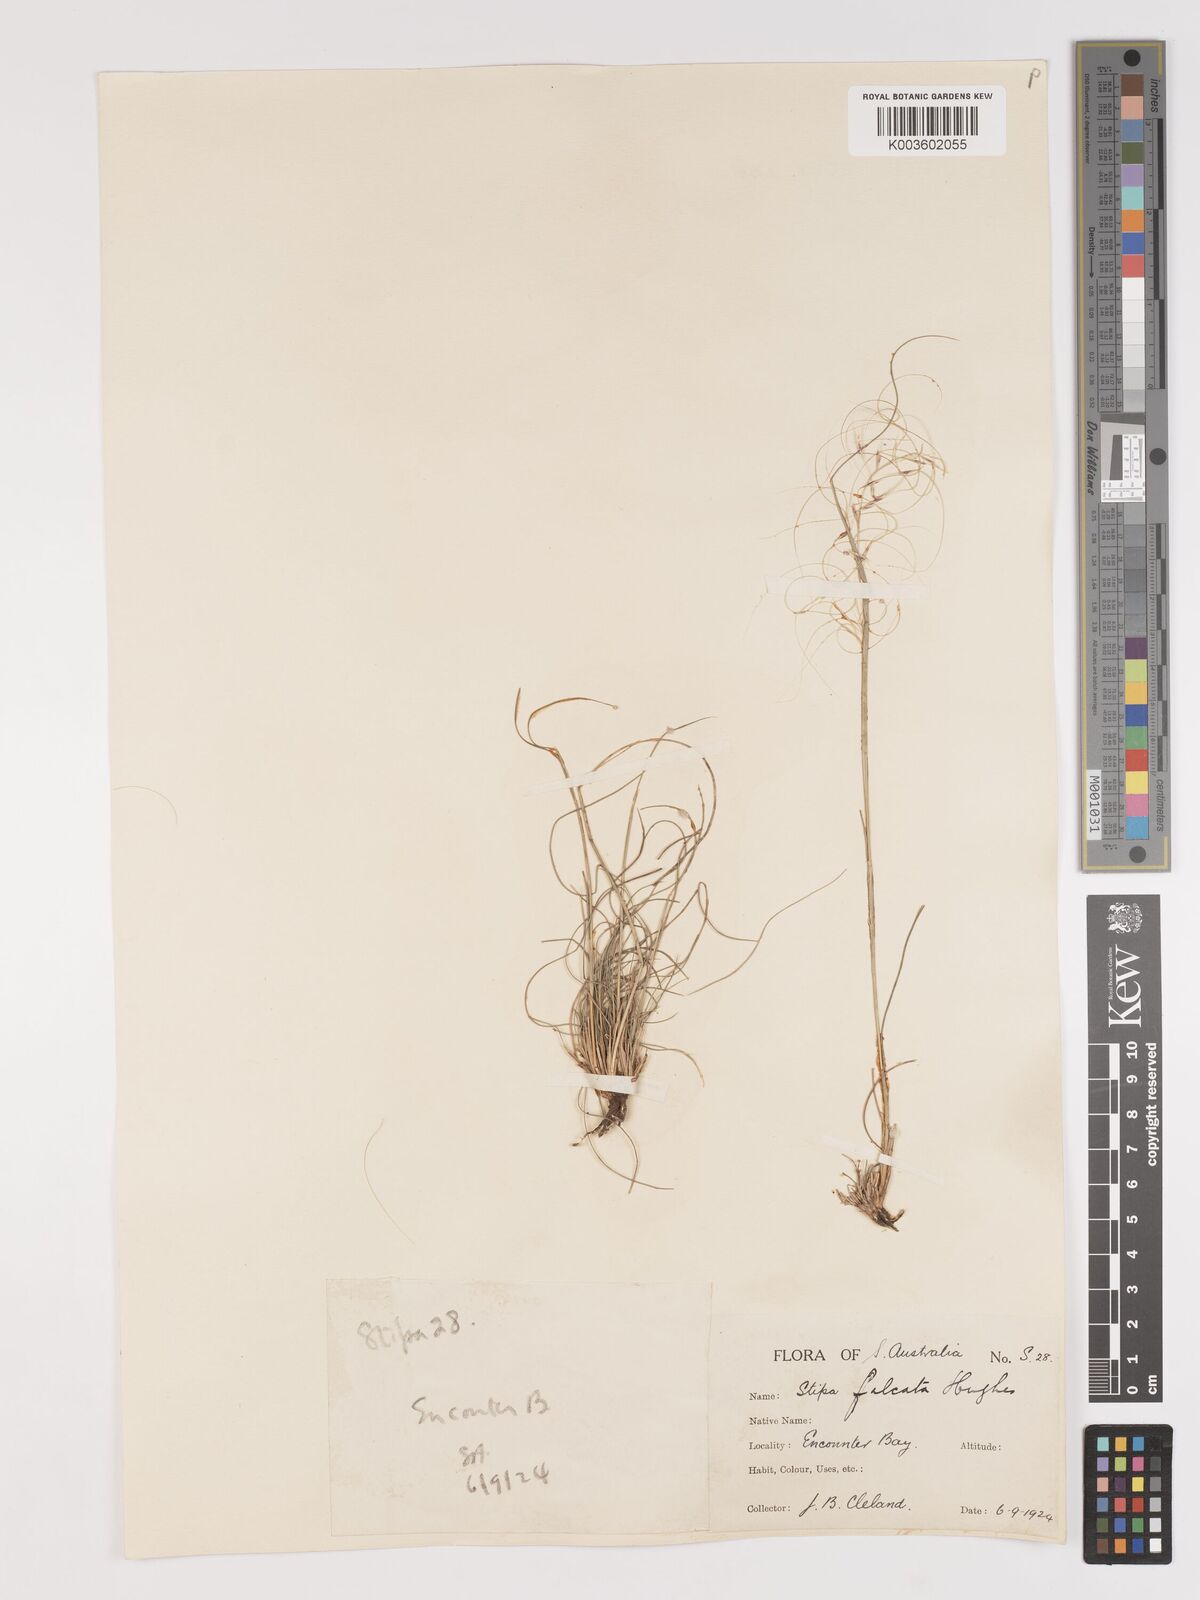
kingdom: Plantae
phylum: Tracheophyta
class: Liliopsida
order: Poales
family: Poaceae
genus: Austrostipa
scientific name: Austrostipa scabra
